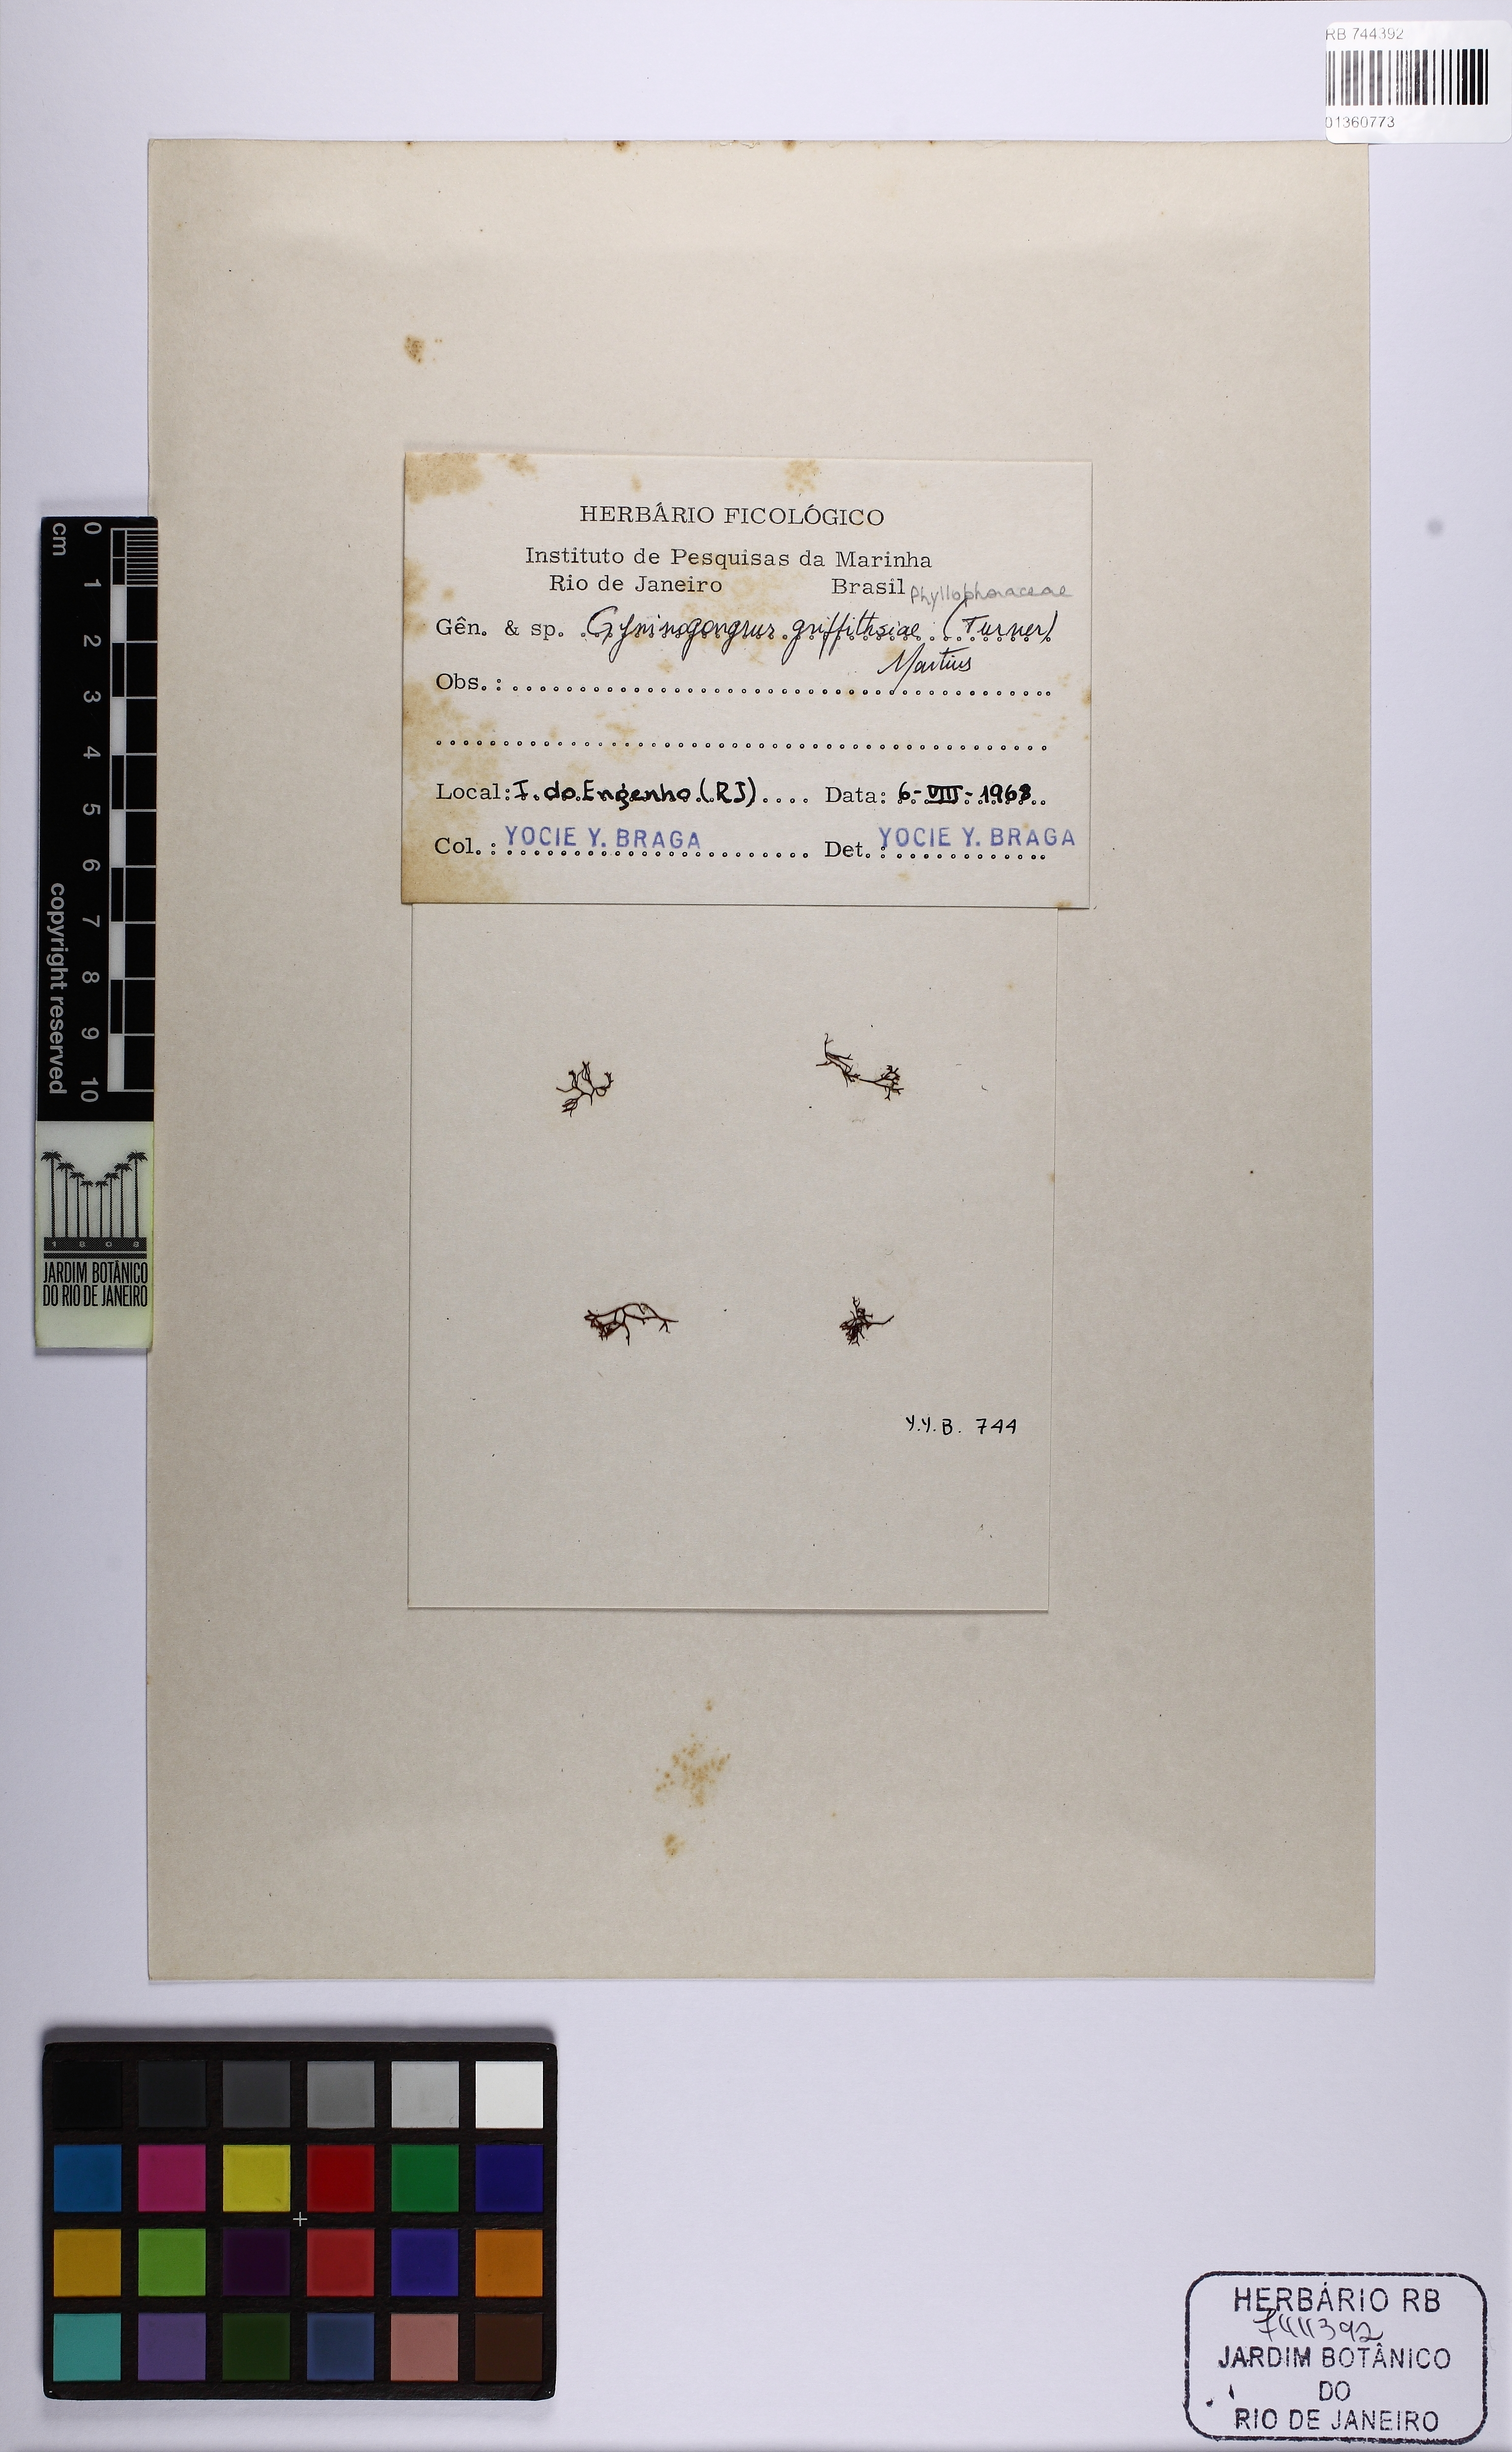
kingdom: Plantae
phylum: Rhodophyta
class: Florideophyceae
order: Gigartinales
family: Phyllophoraceae
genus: Gymnogongrus
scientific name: Gymnogongrus griffithsiae
